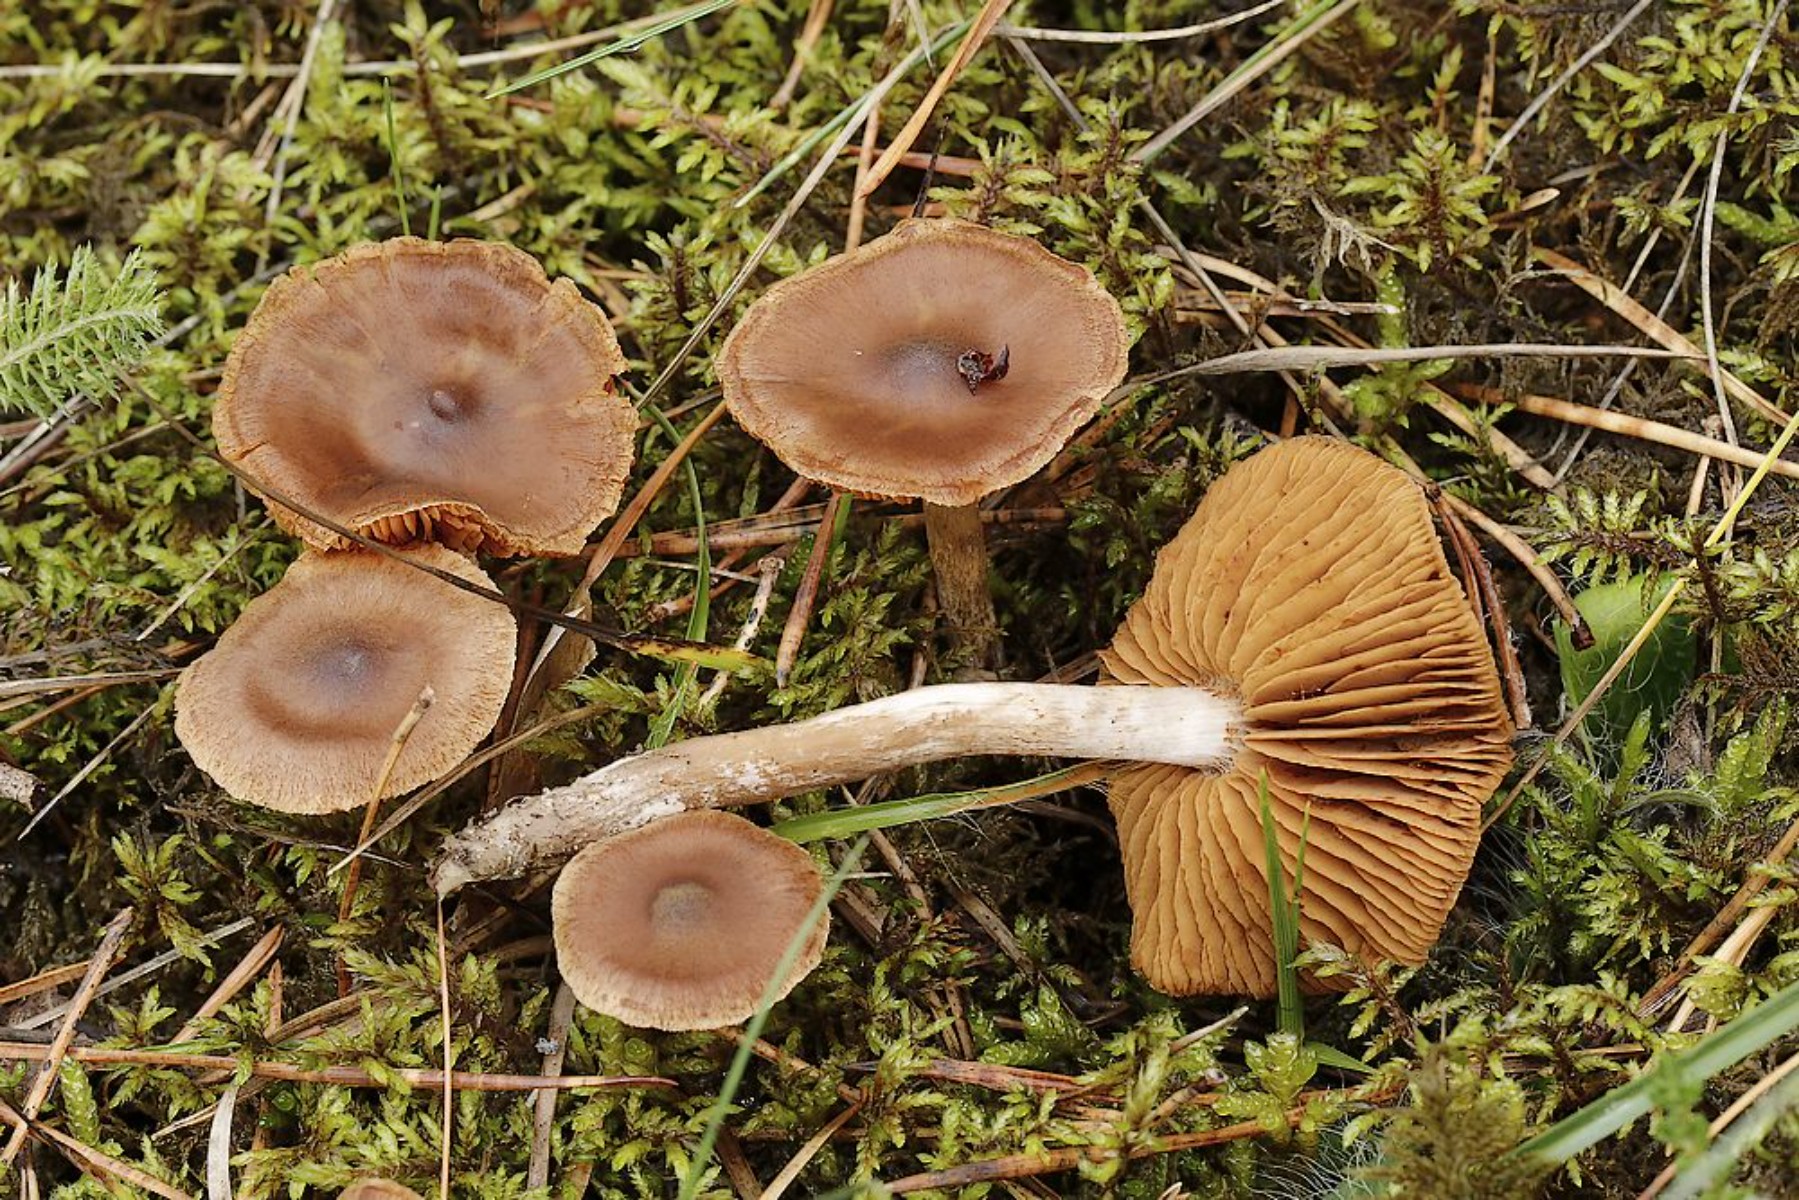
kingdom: Fungi
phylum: Basidiomycota
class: Agaricomycetes
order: Agaricales
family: Cortinariaceae
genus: Cortinarius
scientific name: Cortinarius
